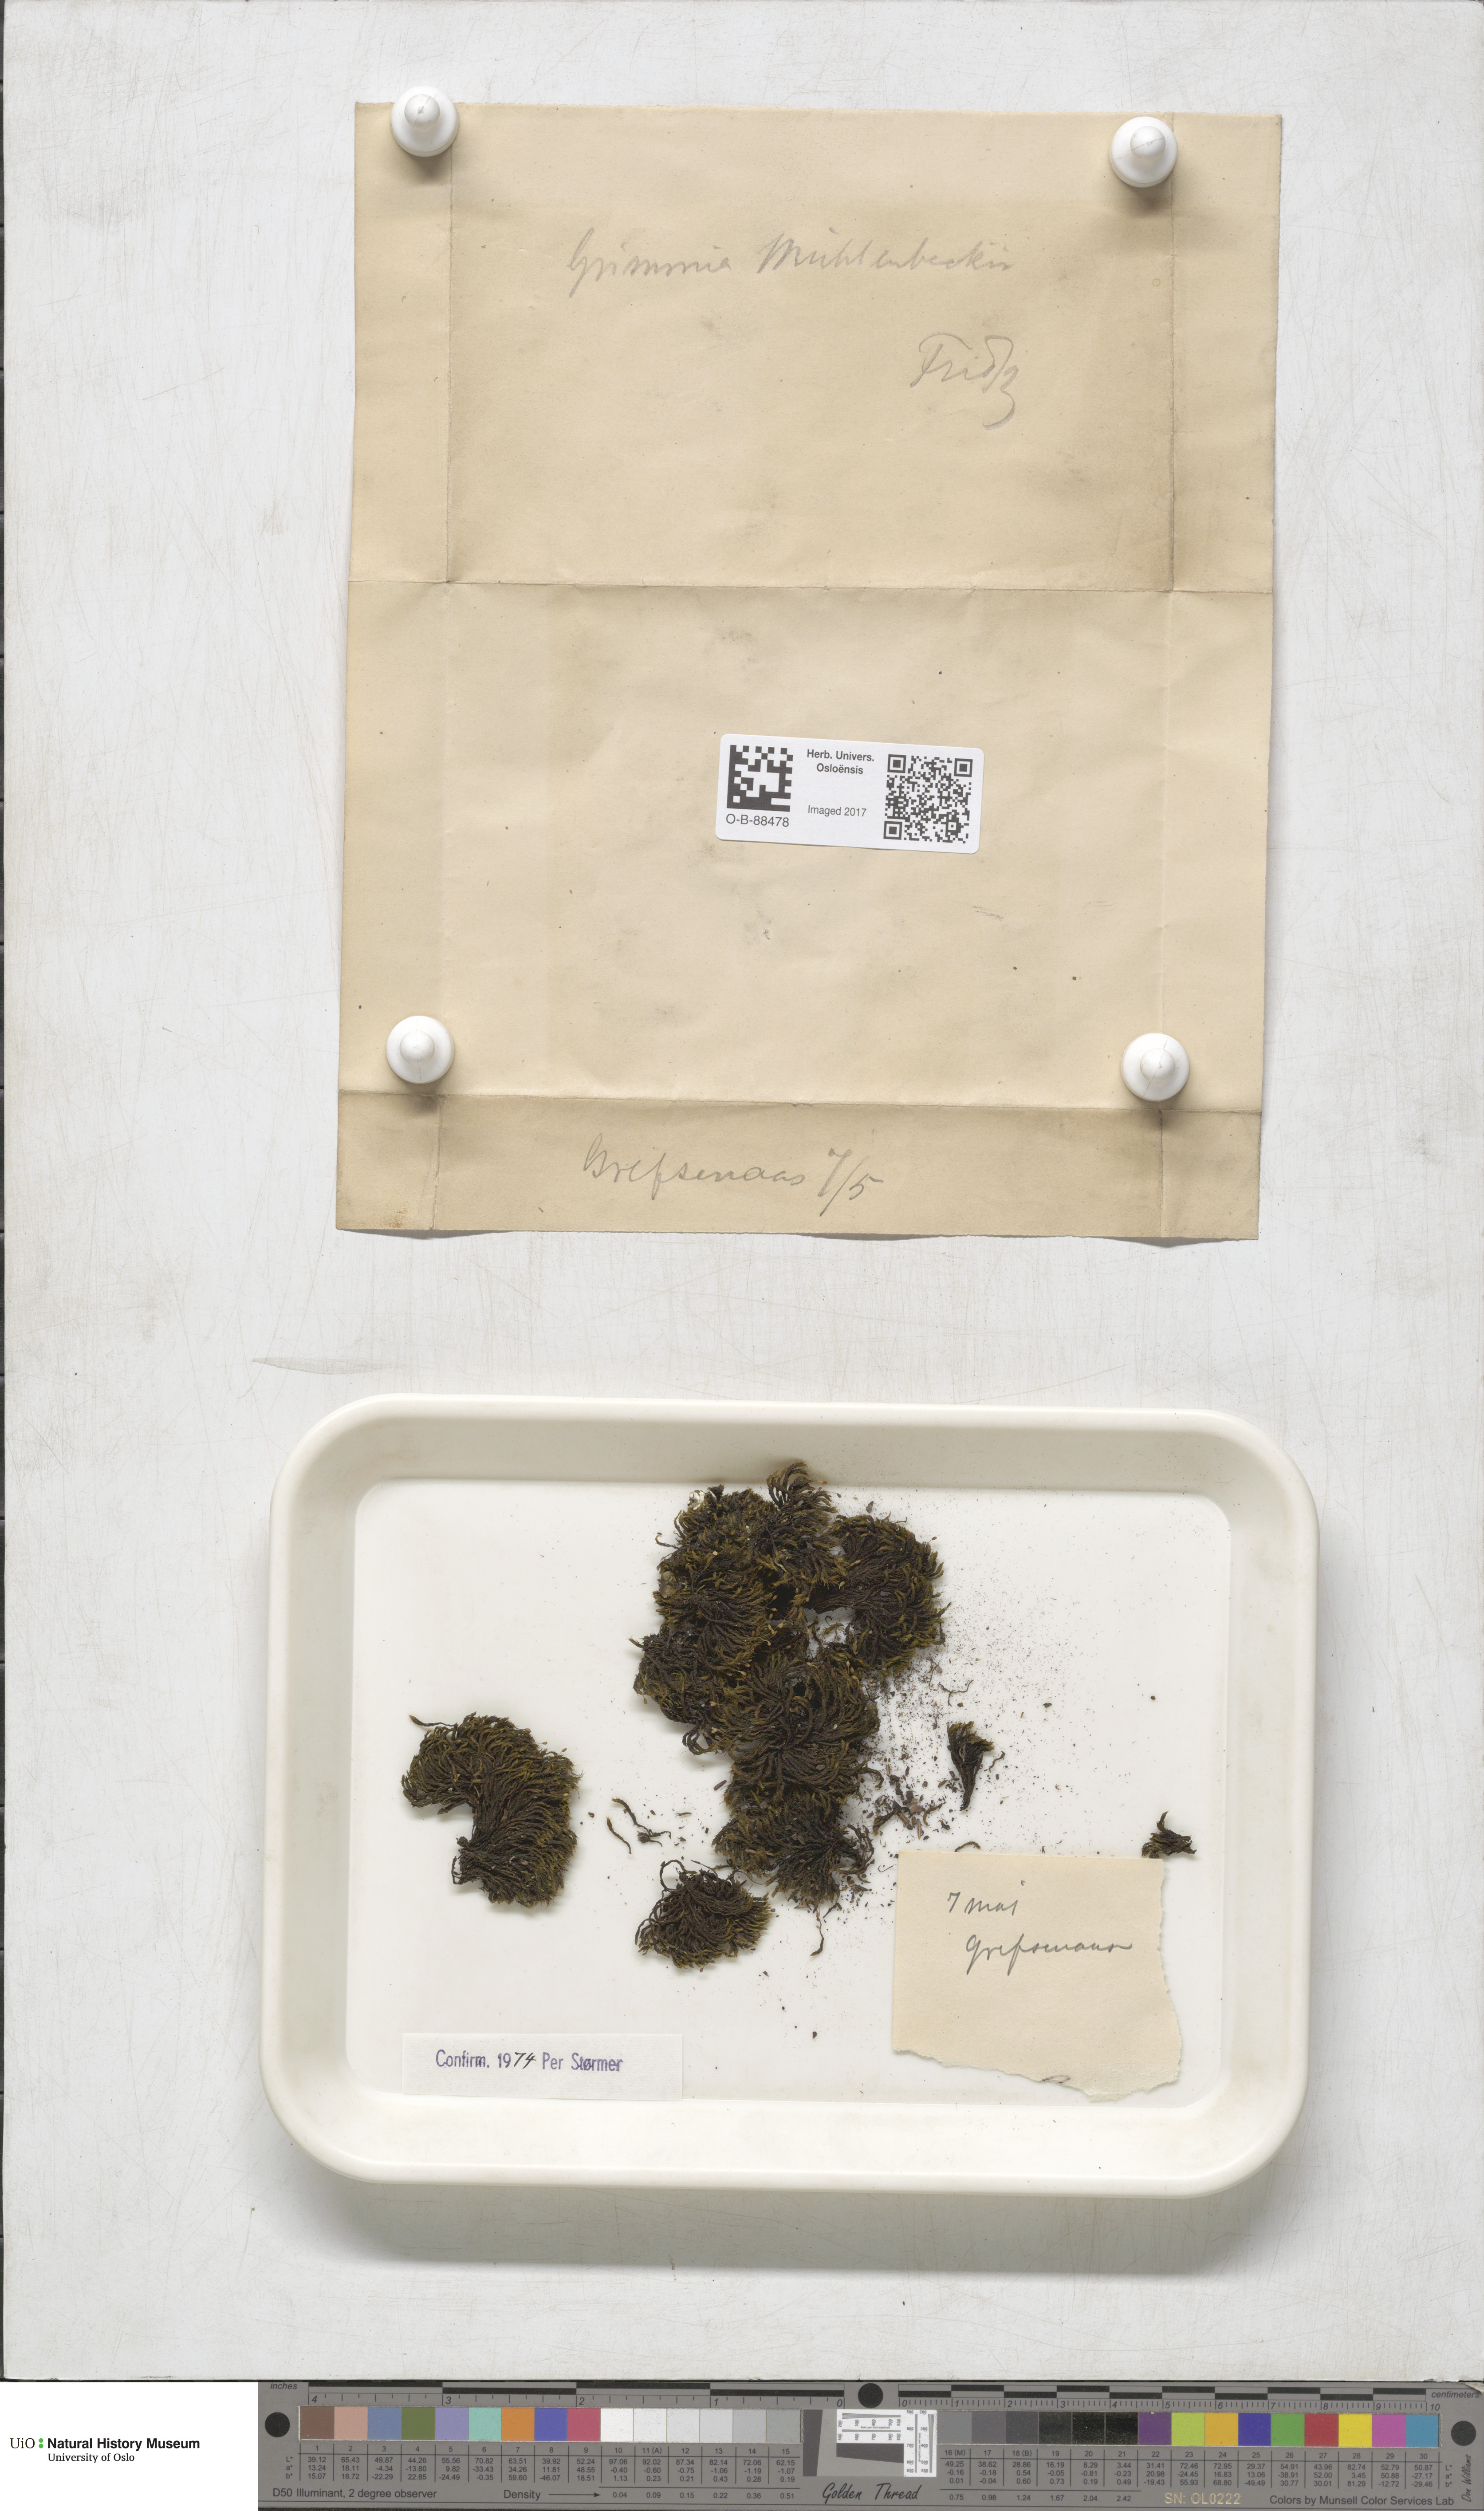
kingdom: Plantae
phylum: Bryophyta
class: Bryopsida
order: Grimmiales
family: Grimmiaceae
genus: Grimmia
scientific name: Grimmia trichophylla
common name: Hair-pointed grimmia
